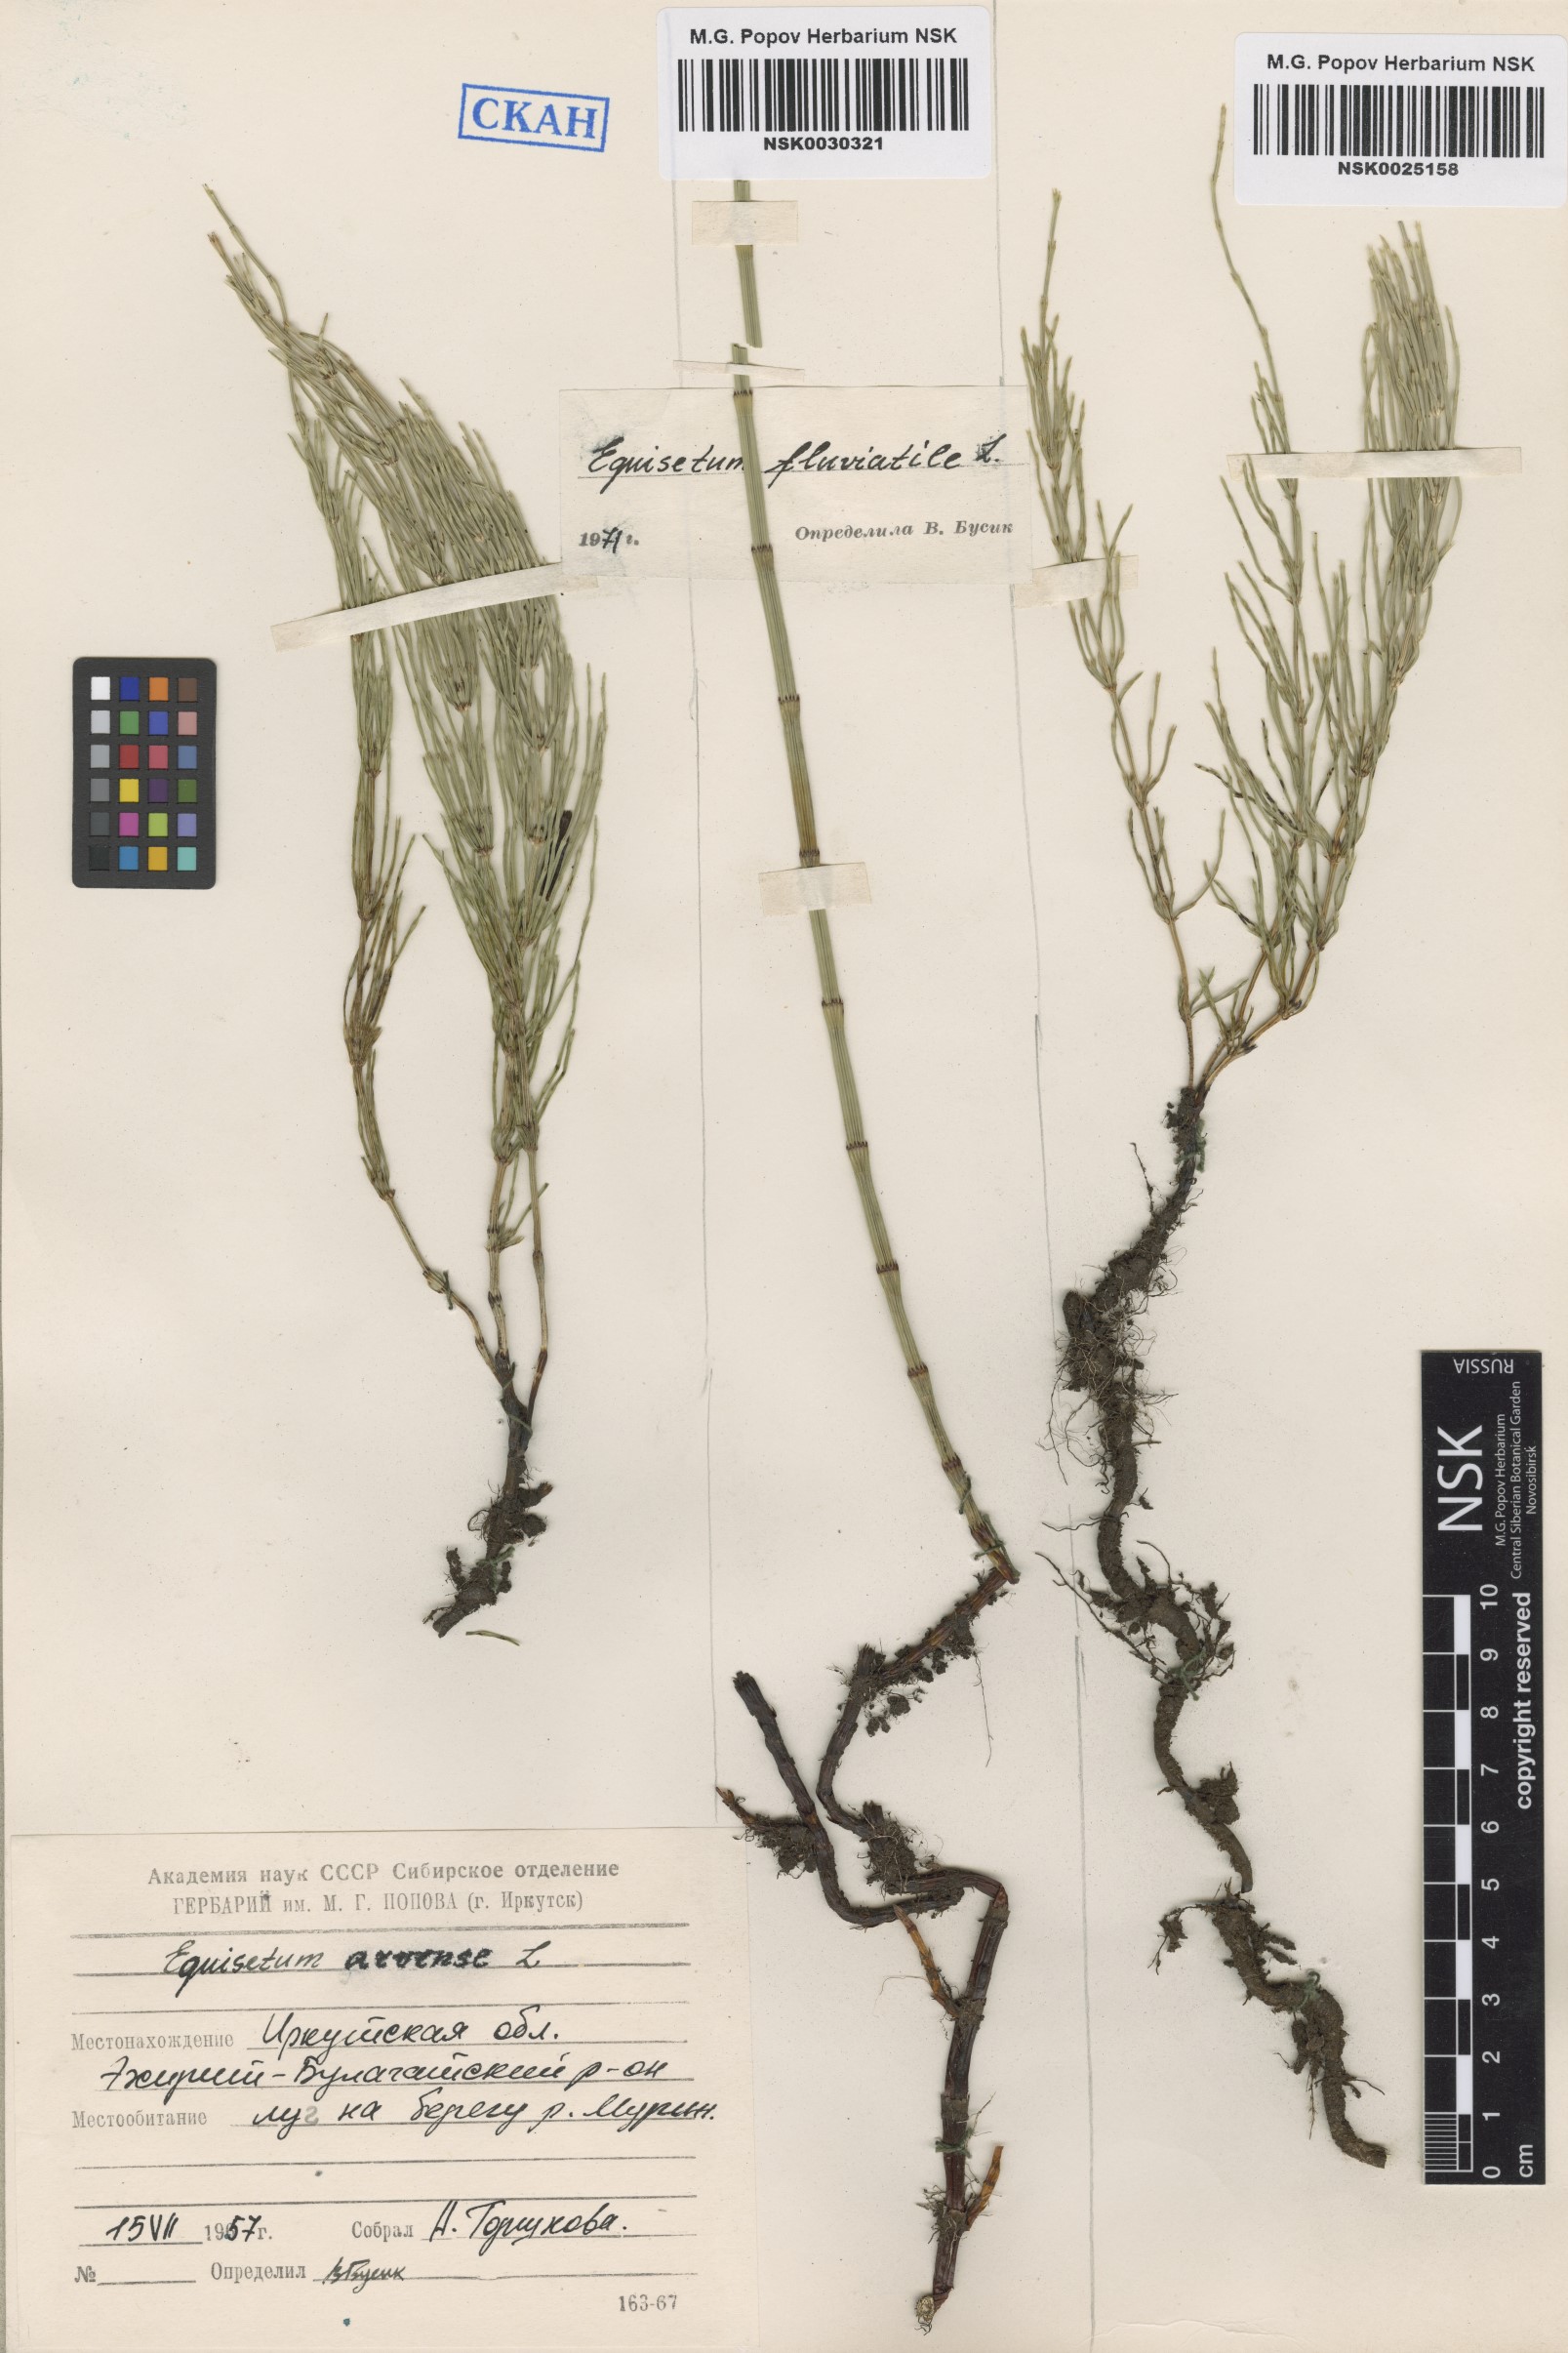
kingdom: Plantae
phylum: Tracheophyta
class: Polypodiopsida
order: Equisetales
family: Equisetaceae
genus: Equisetum
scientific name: Equisetum arvense
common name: Field horsetail
